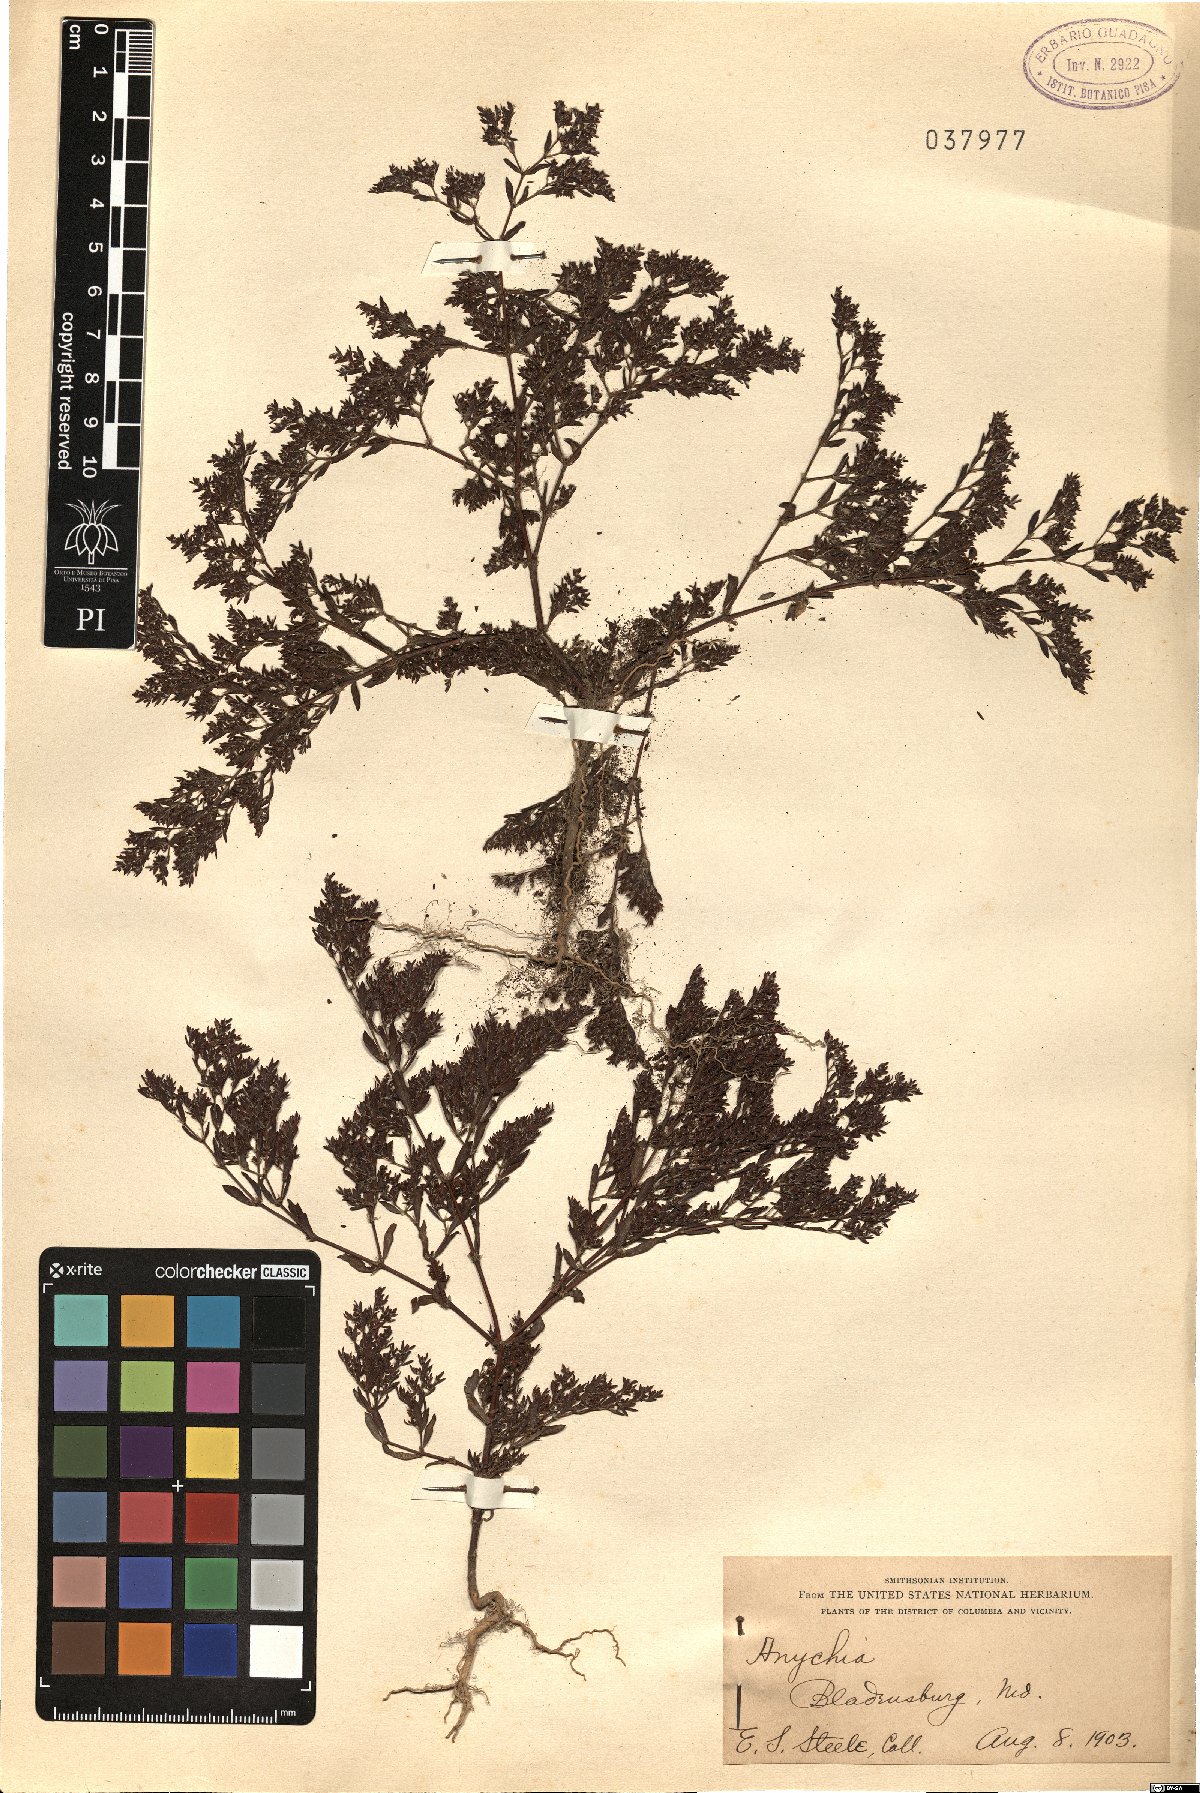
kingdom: Plantae
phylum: Tracheophyta
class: Magnoliopsida
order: Caryophyllales
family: Caryophyllaceae
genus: Paronychia
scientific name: Paronychia
